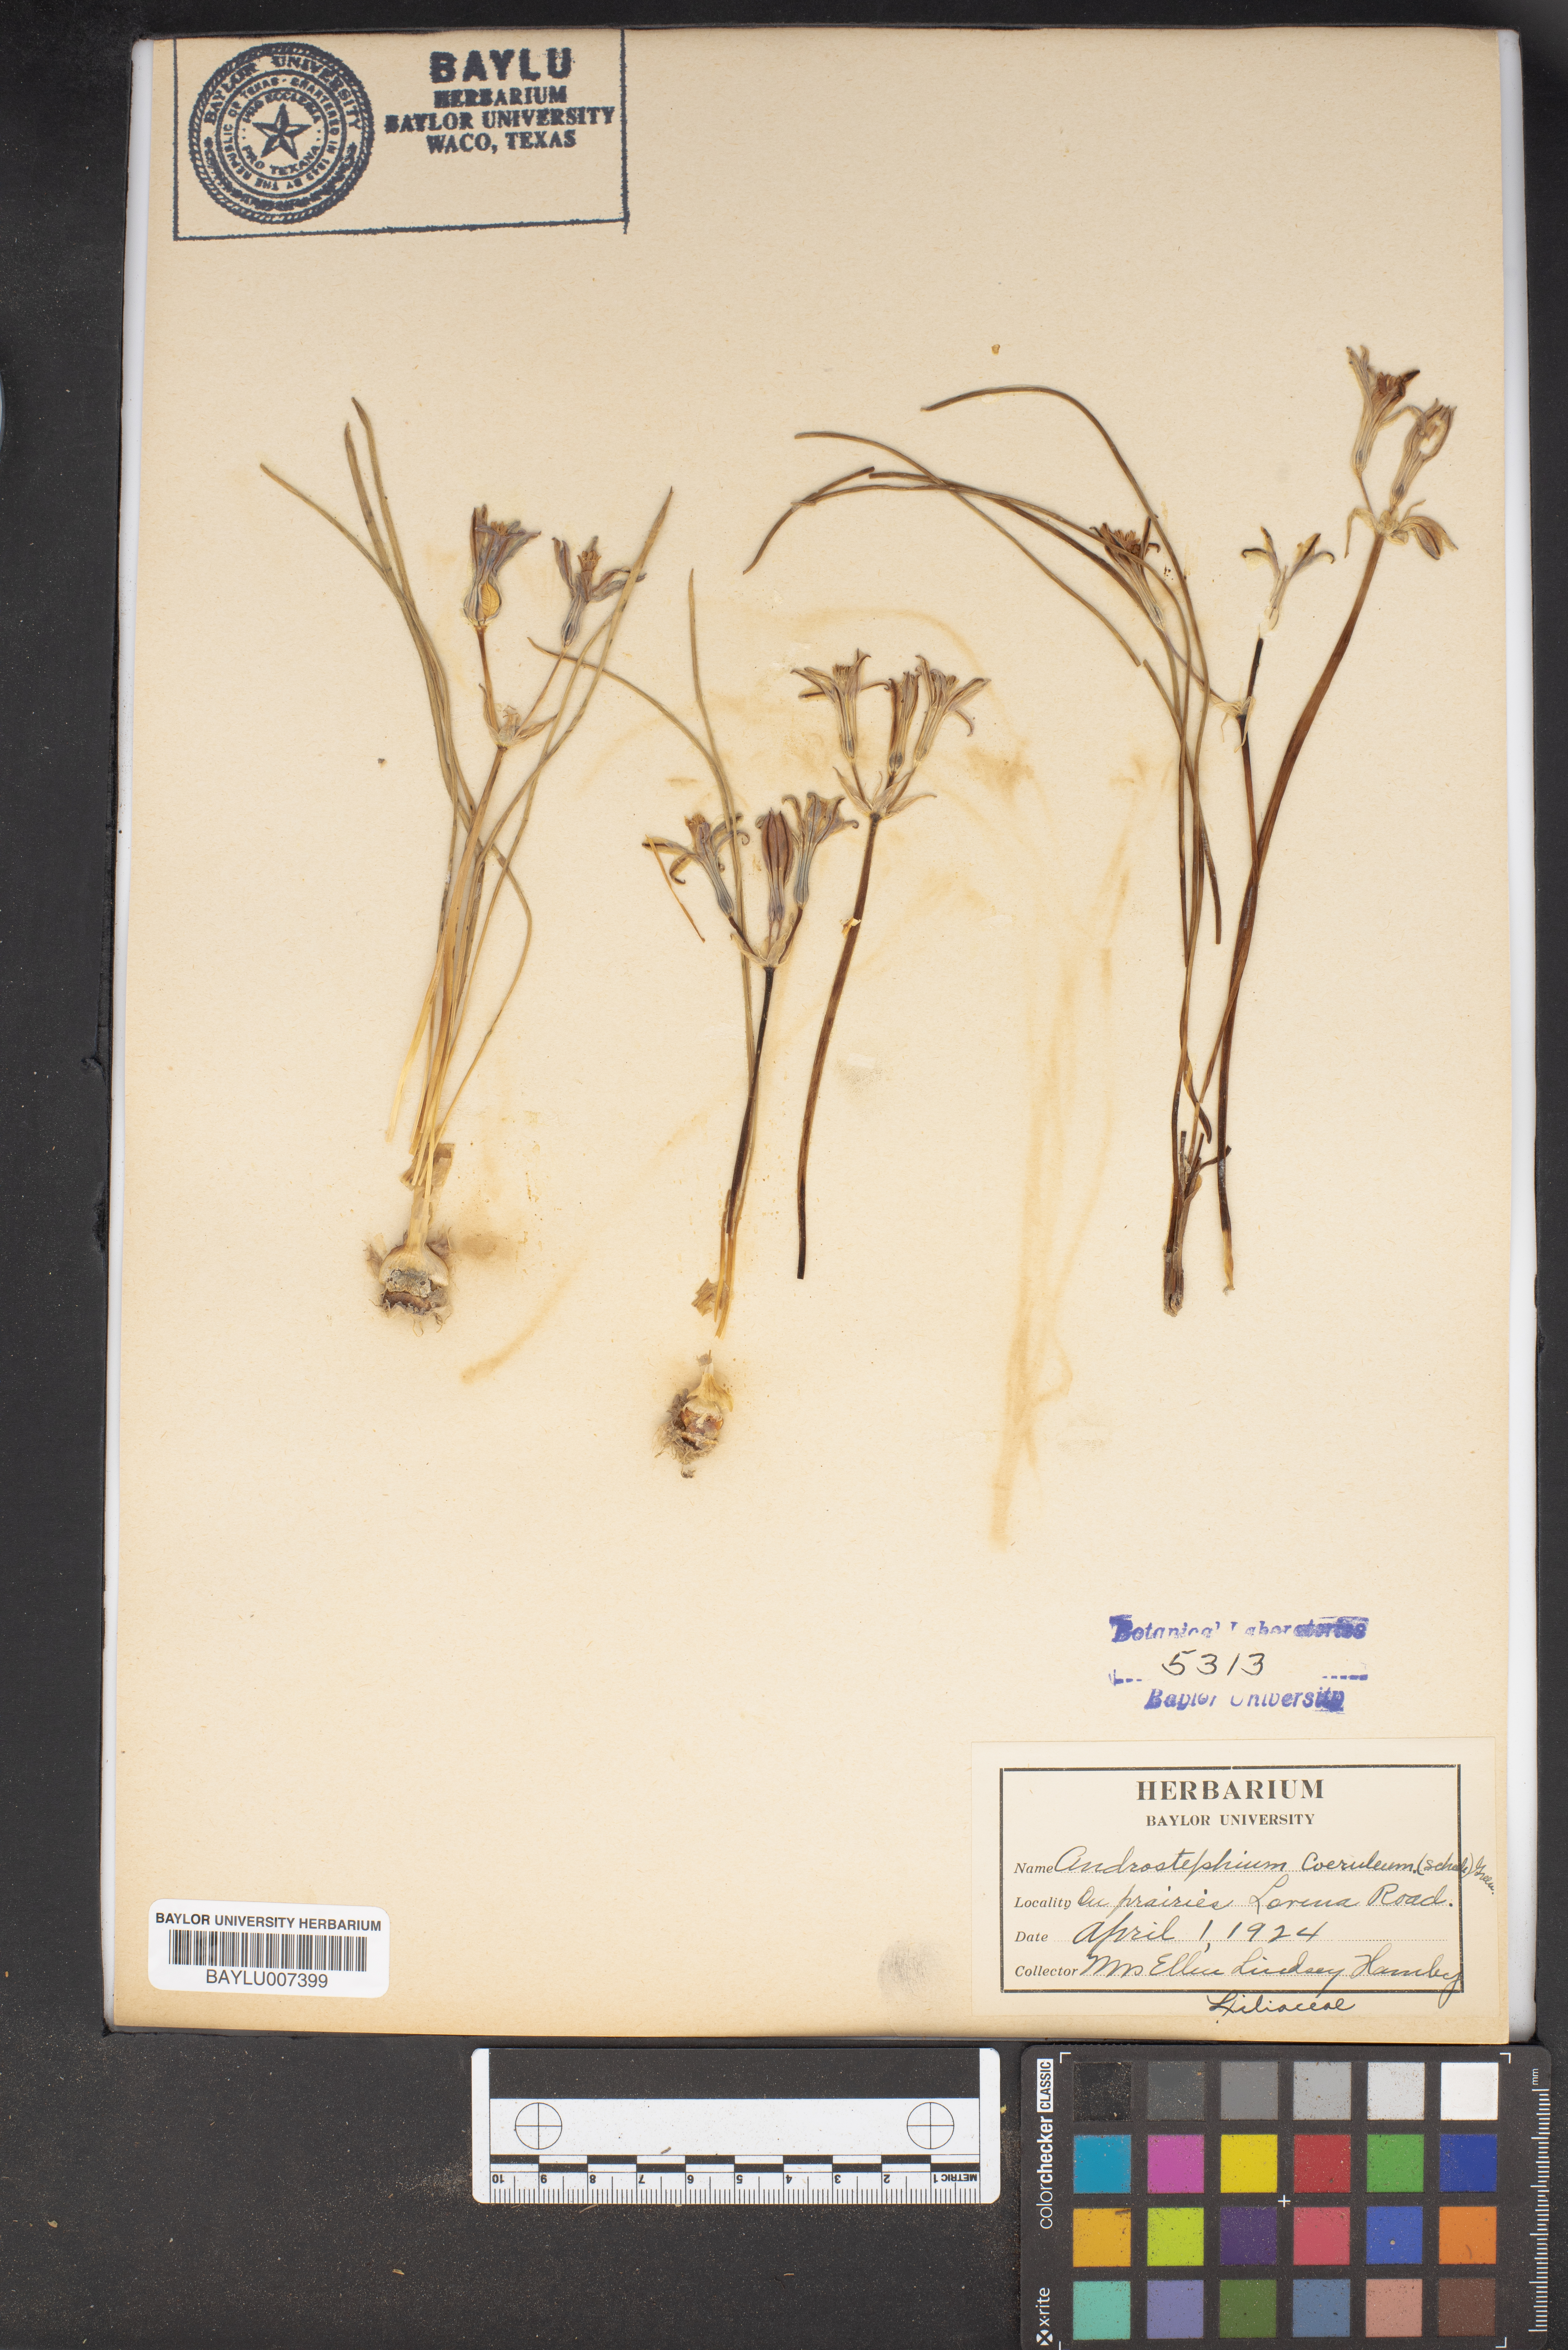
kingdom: Plantae
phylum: Tracheophyta
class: Liliopsida
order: Asparagales
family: Asparagaceae
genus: Androstephium
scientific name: Androstephium coeruleum
